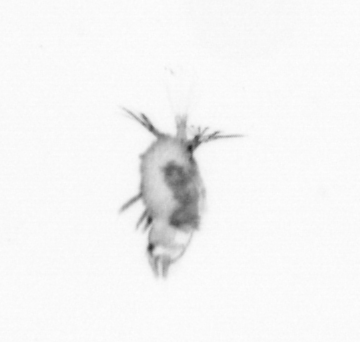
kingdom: Animalia
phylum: Annelida
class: Polychaeta
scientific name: Polychaeta
